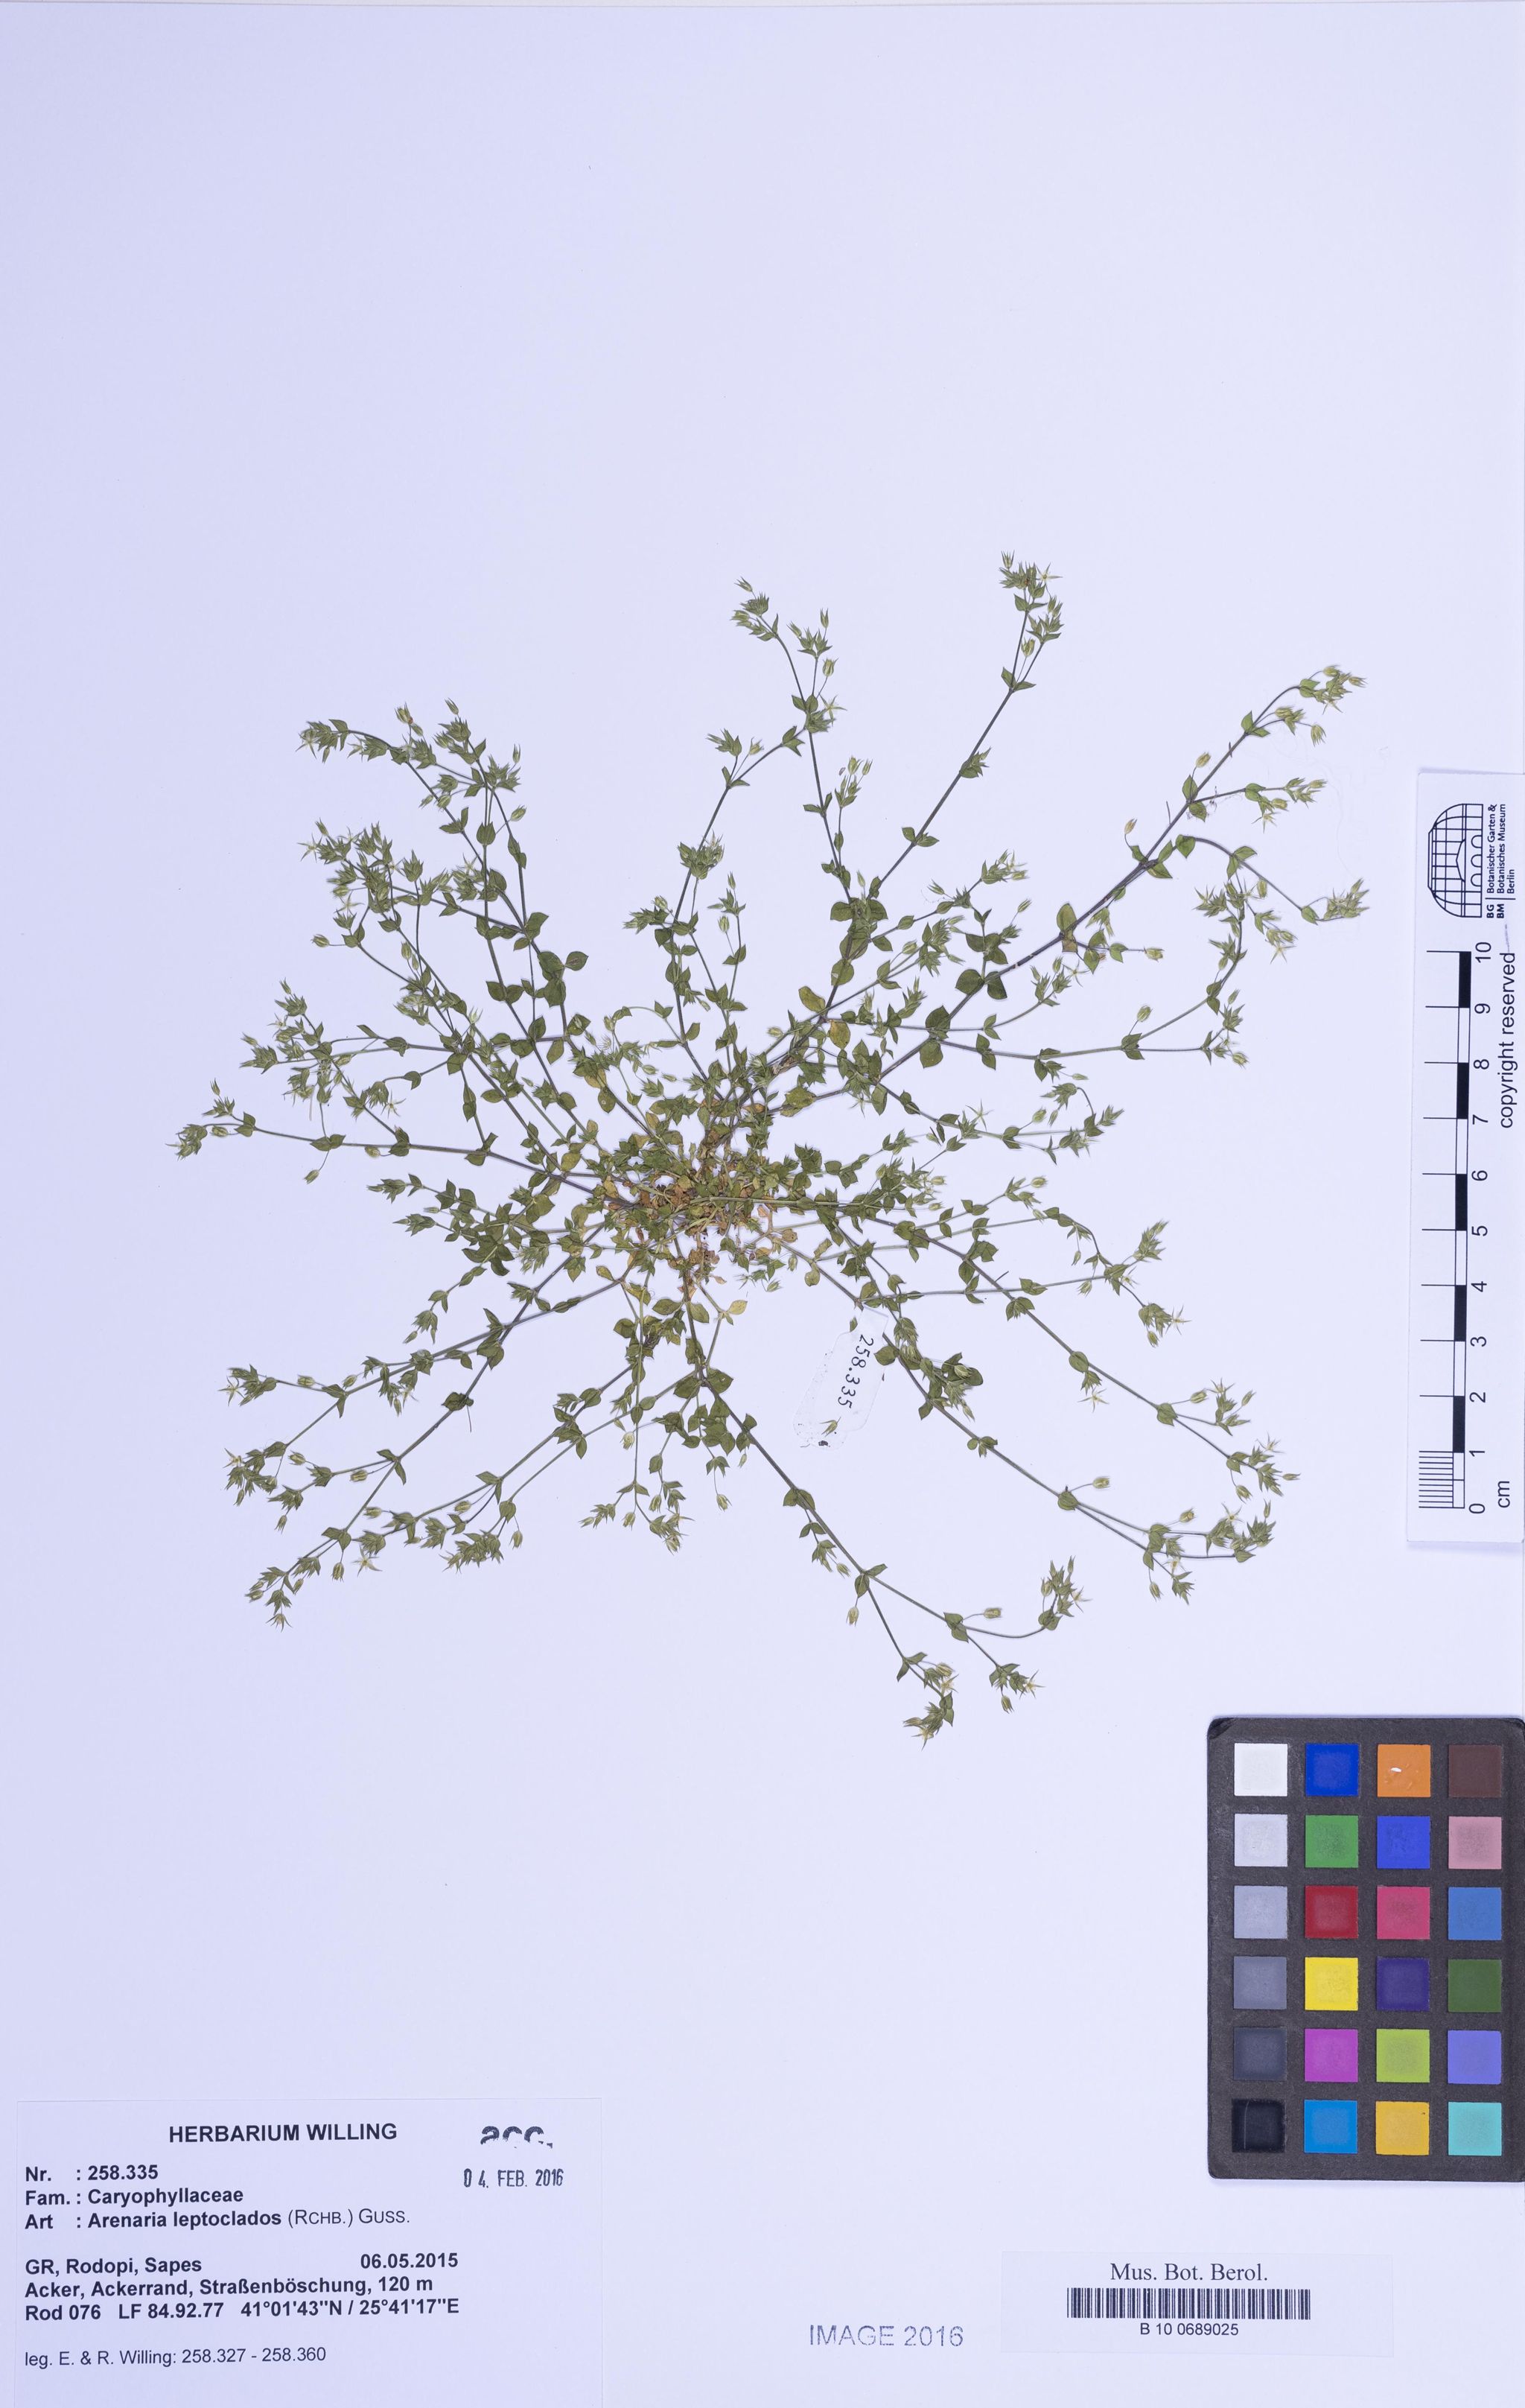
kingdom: Plantae
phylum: Tracheophyta
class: Magnoliopsida
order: Caryophyllales
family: Caryophyllaceae
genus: Arenaria
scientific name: Arenaria leptoclados
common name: Thyme-leaved sandwort
